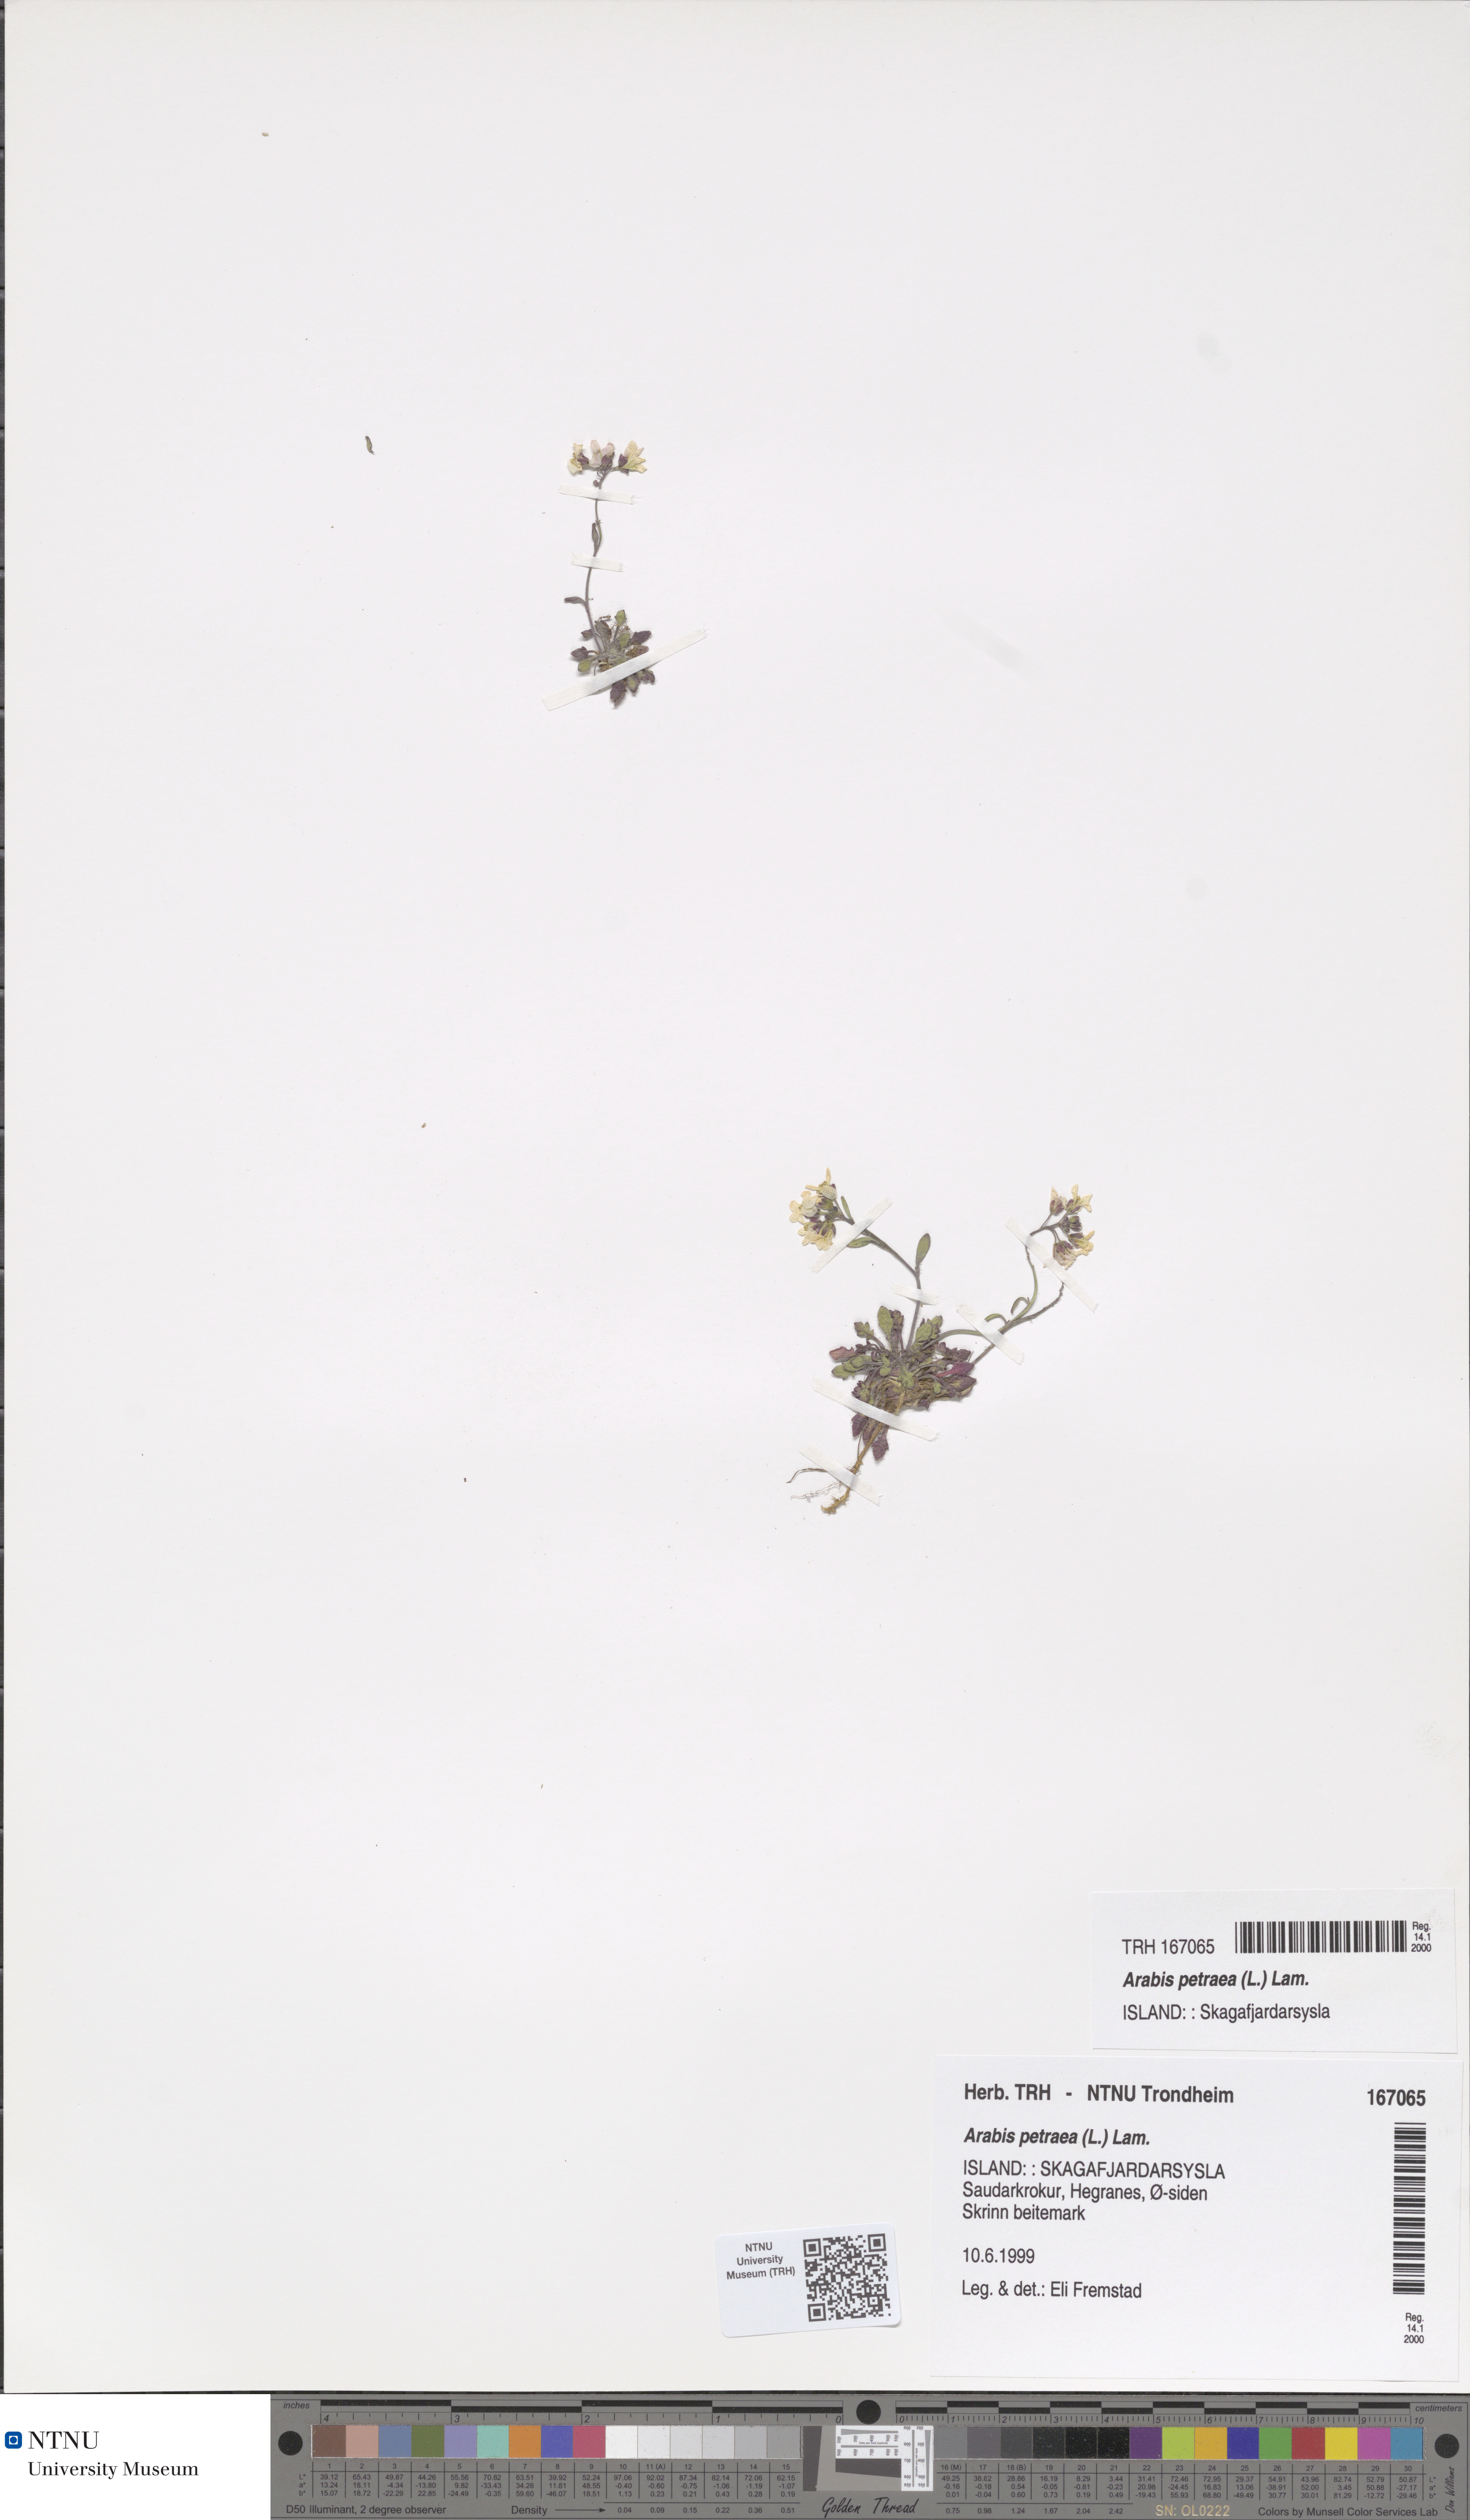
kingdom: Plantae
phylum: Tracheophyta
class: Magnoliopsida
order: Brassicales
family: Brassicaceae
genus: Arabidopsis
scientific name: Arabidopsis petraea
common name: Northern rock-cress
